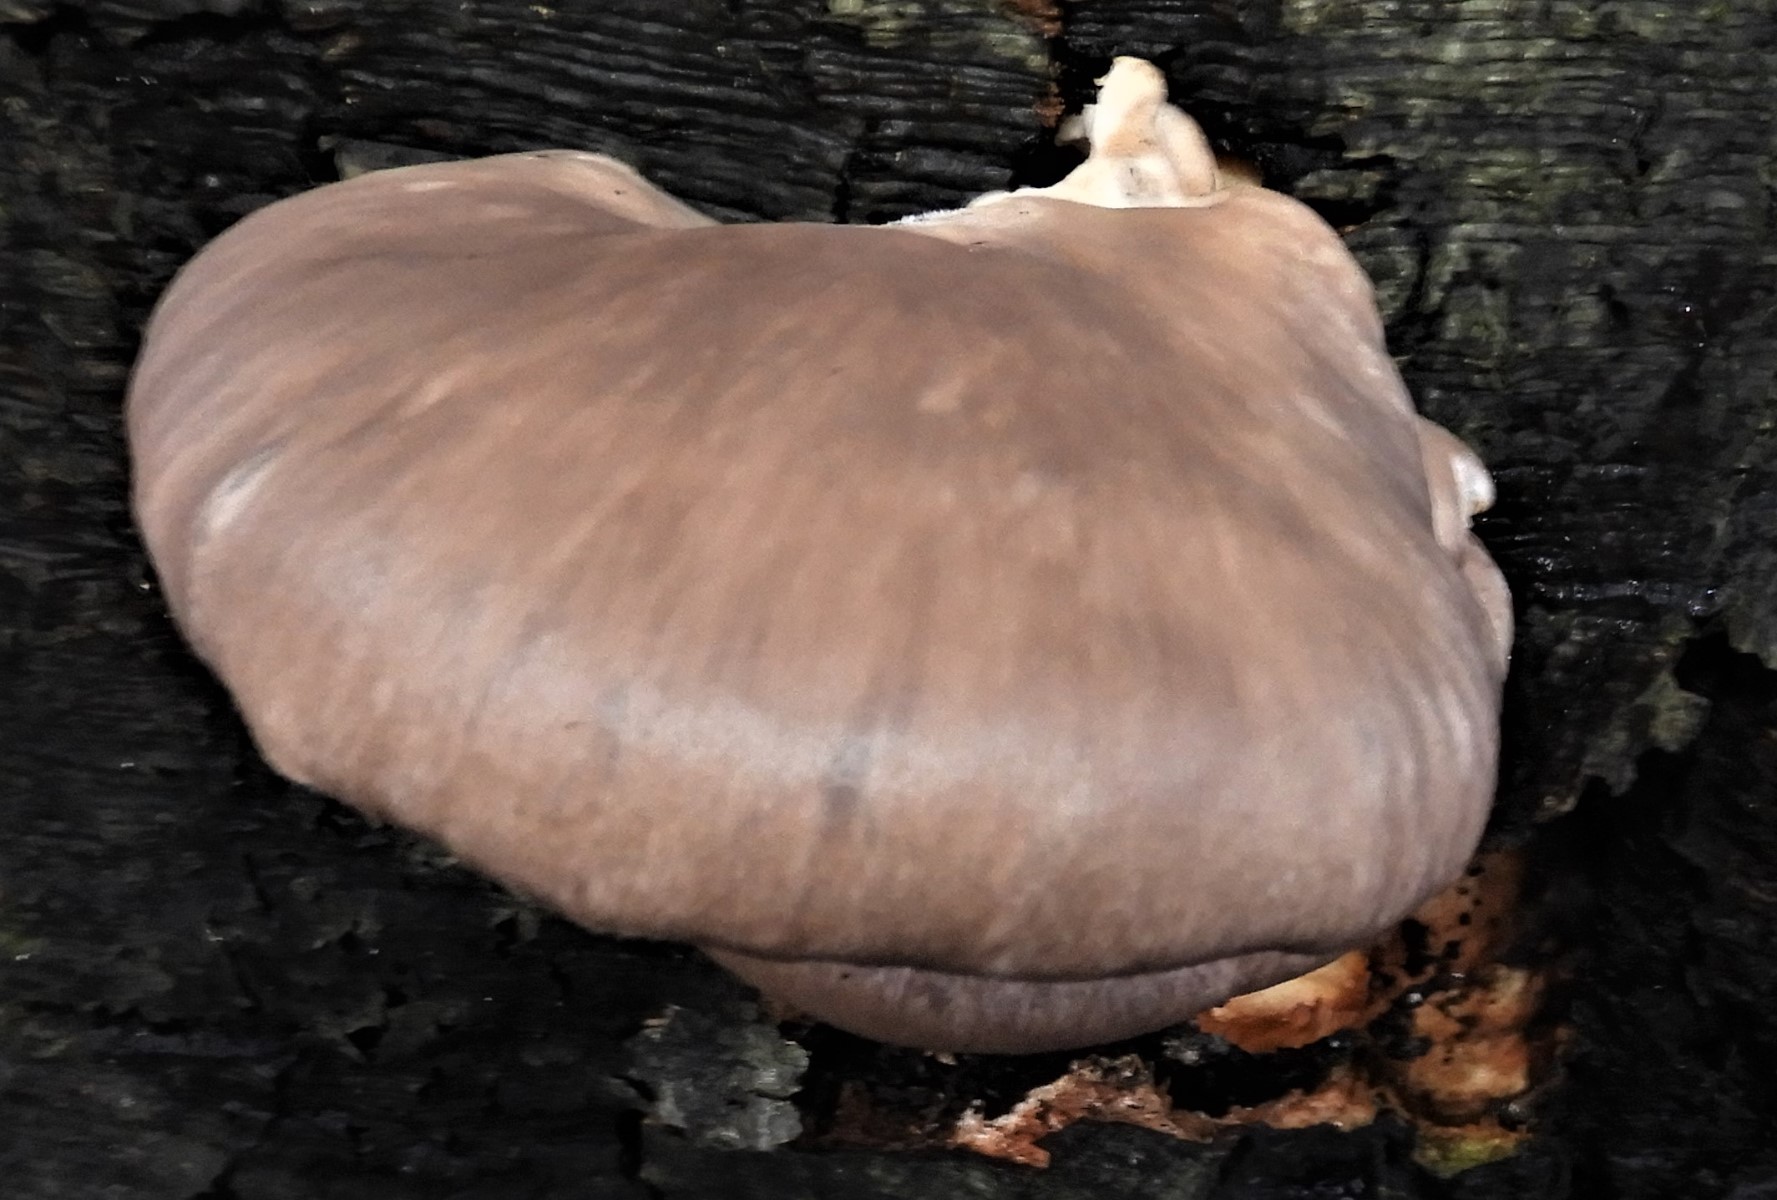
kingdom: Fungi
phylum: Basidiomycota
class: Agaricomycetes
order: Agaricales
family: Pleurotaceae
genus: Pleurotus
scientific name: Pleurotus ostreatus
